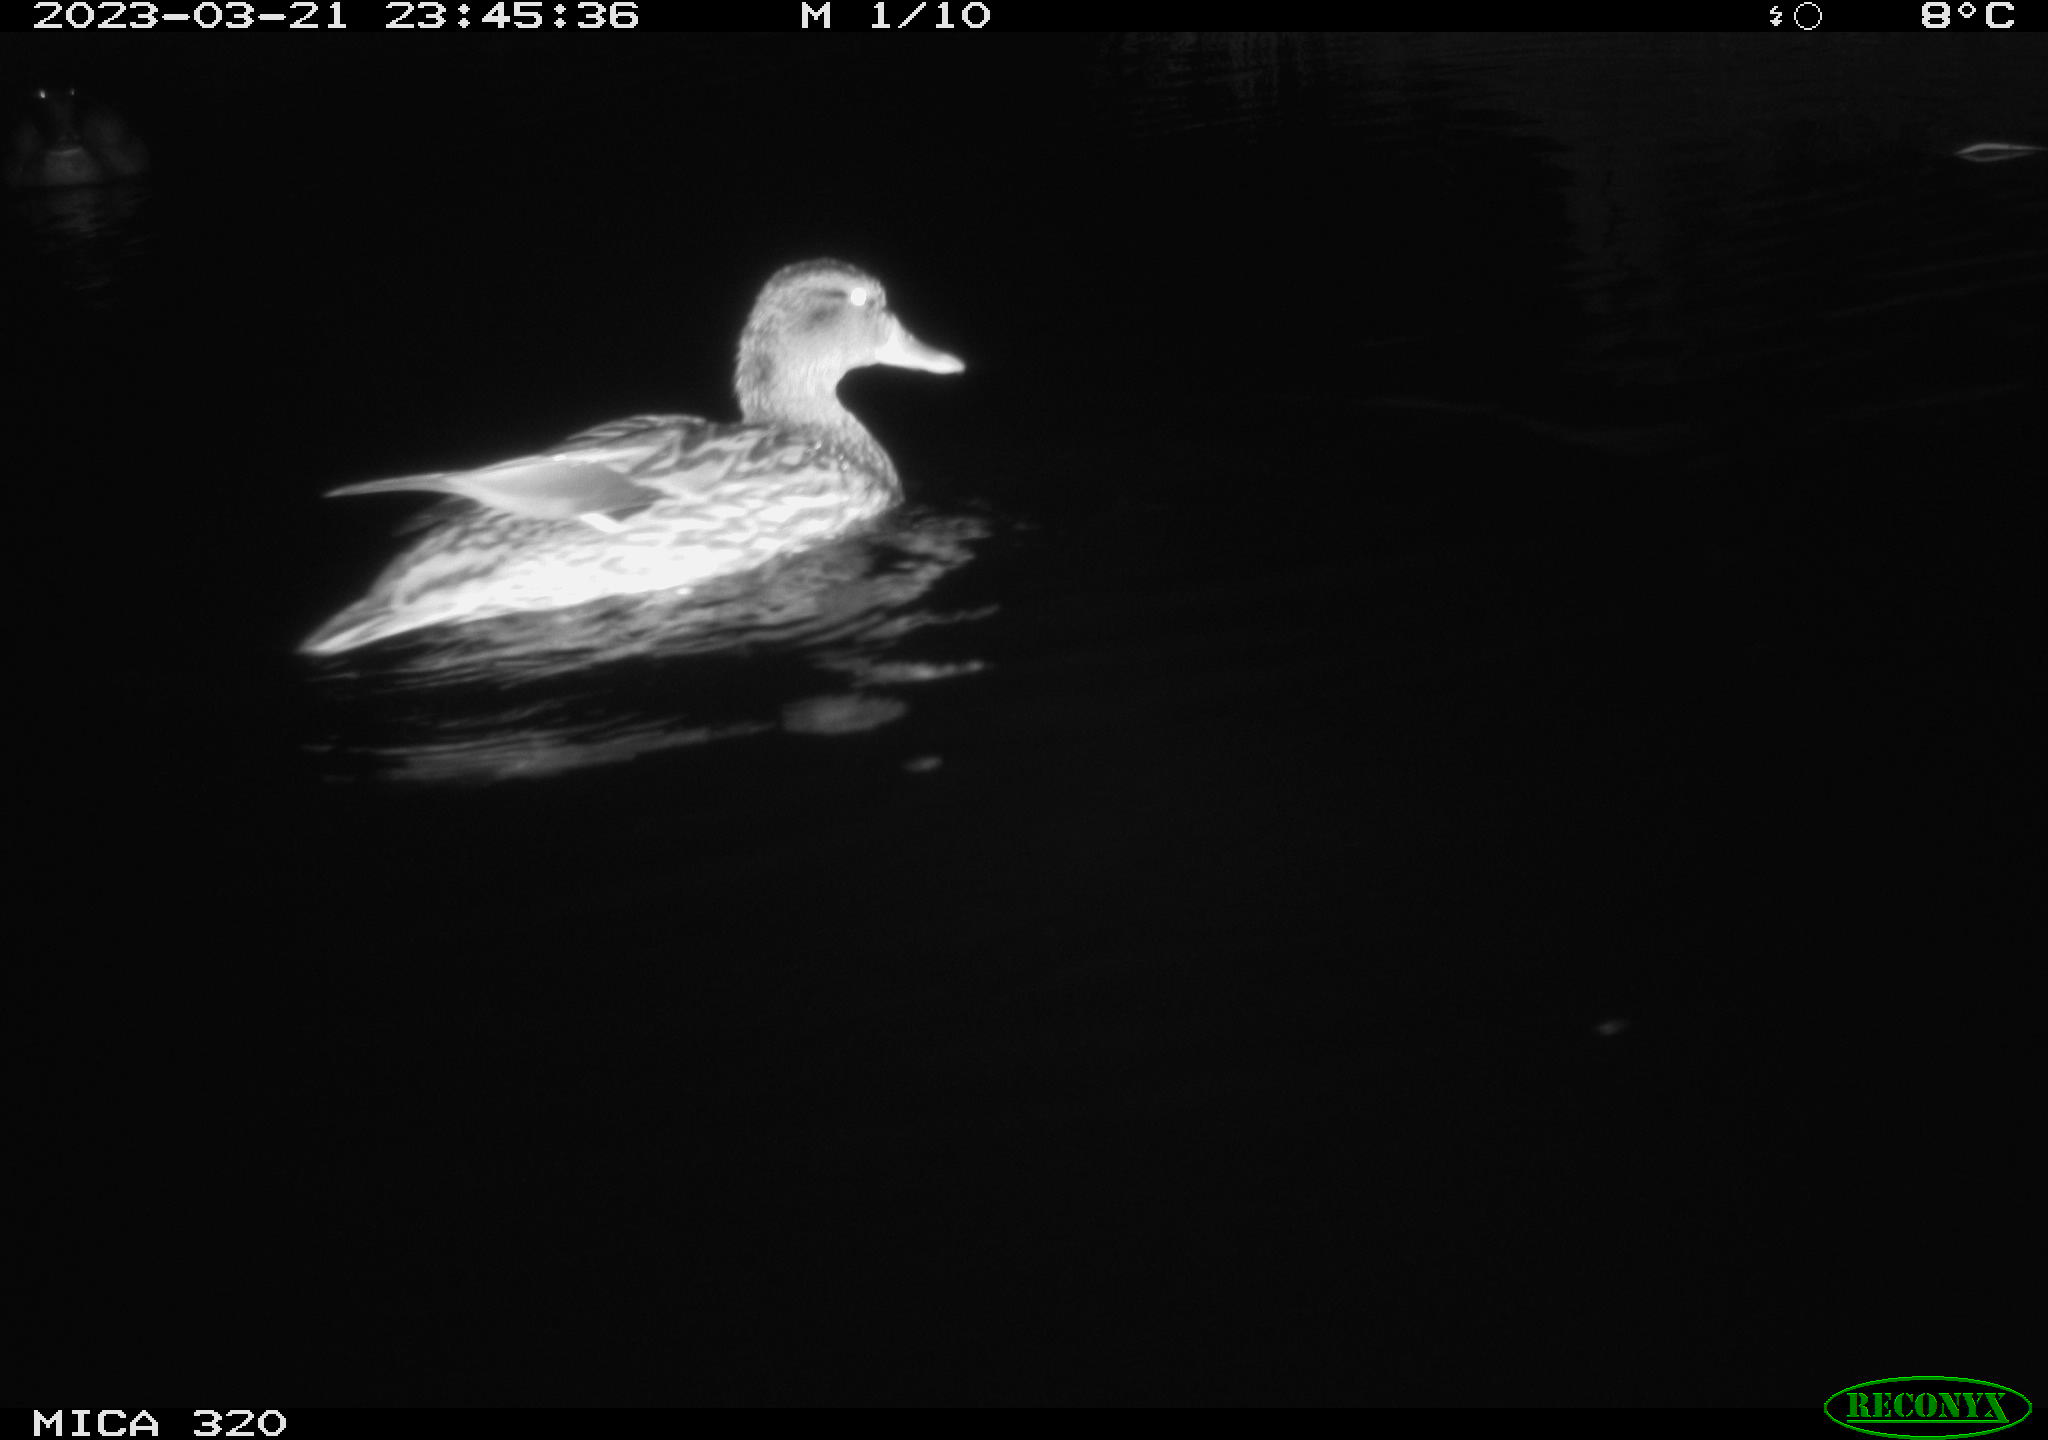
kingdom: Animalia
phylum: Chordata
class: Aves
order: Anseriformes
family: Anatidae
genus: Anas
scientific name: Anas
